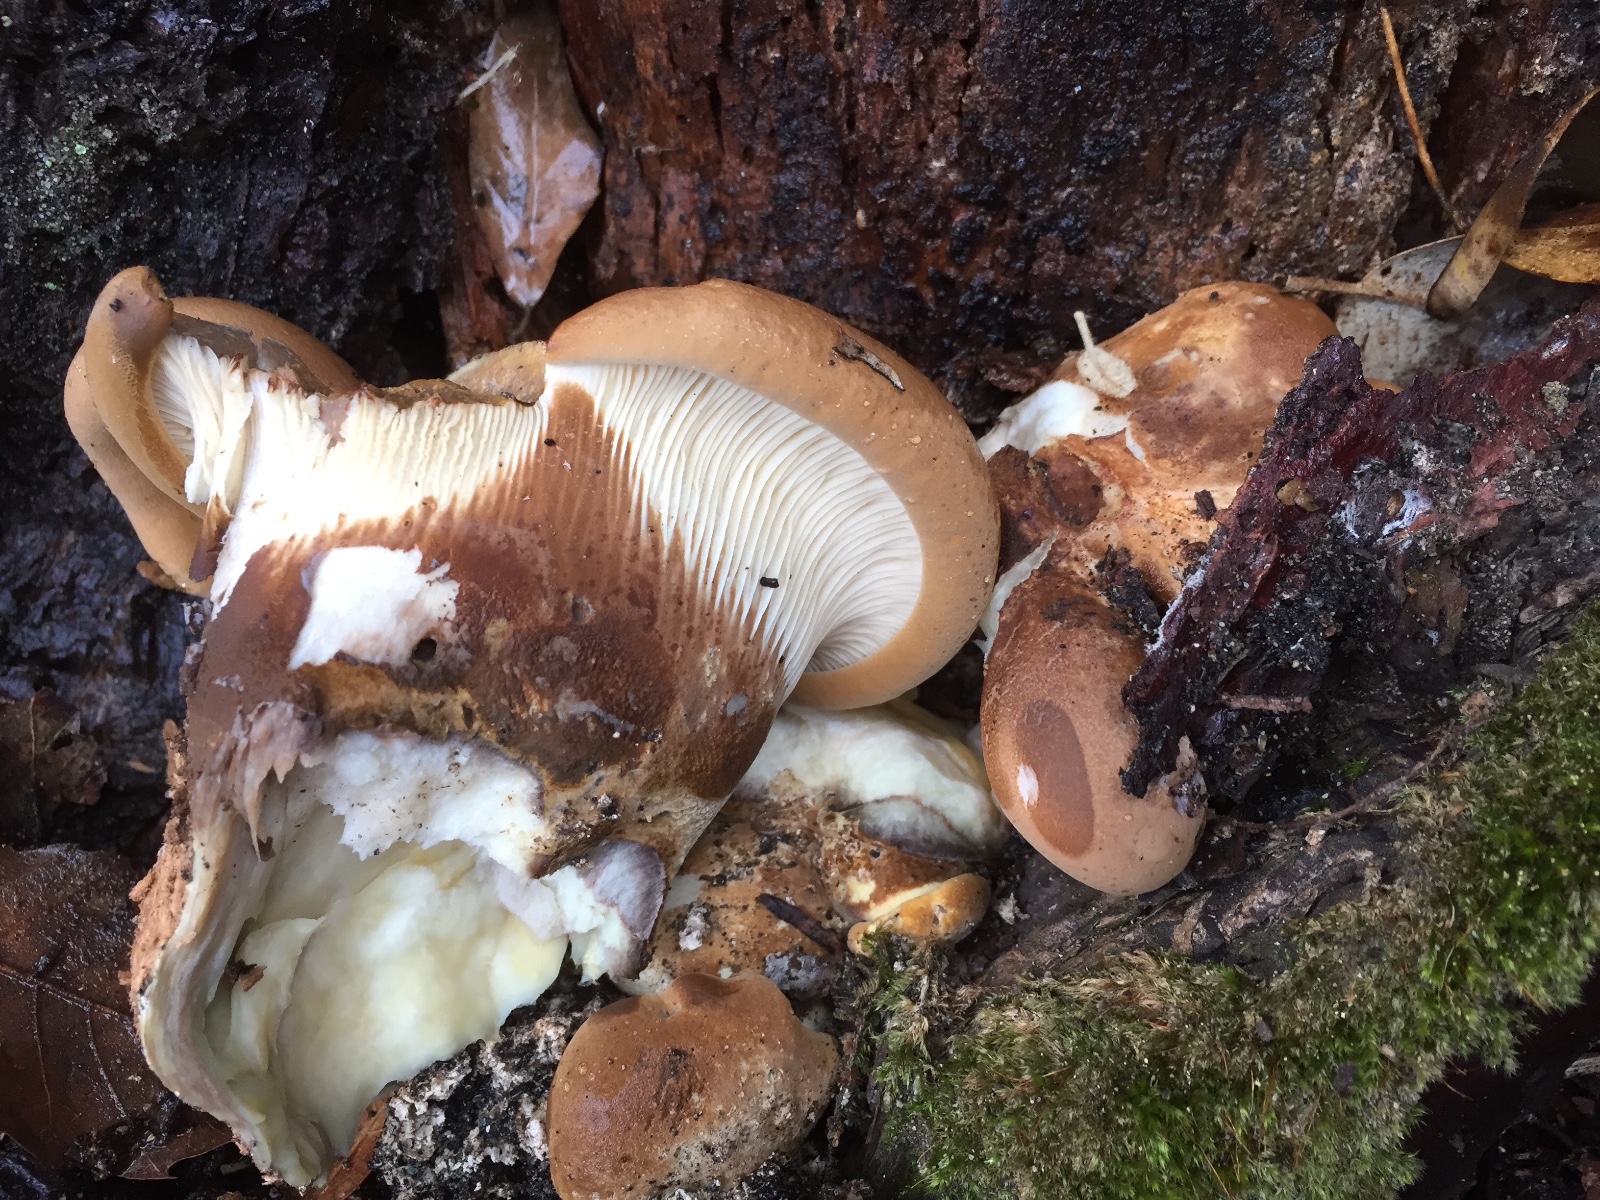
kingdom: Fungi
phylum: Basidiomycota
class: Agaricomycetes
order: Boletales
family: Tapinellaceae
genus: Tapinella
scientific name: Tapinella atrotomentosa
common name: sortfiltet viftesvamp
